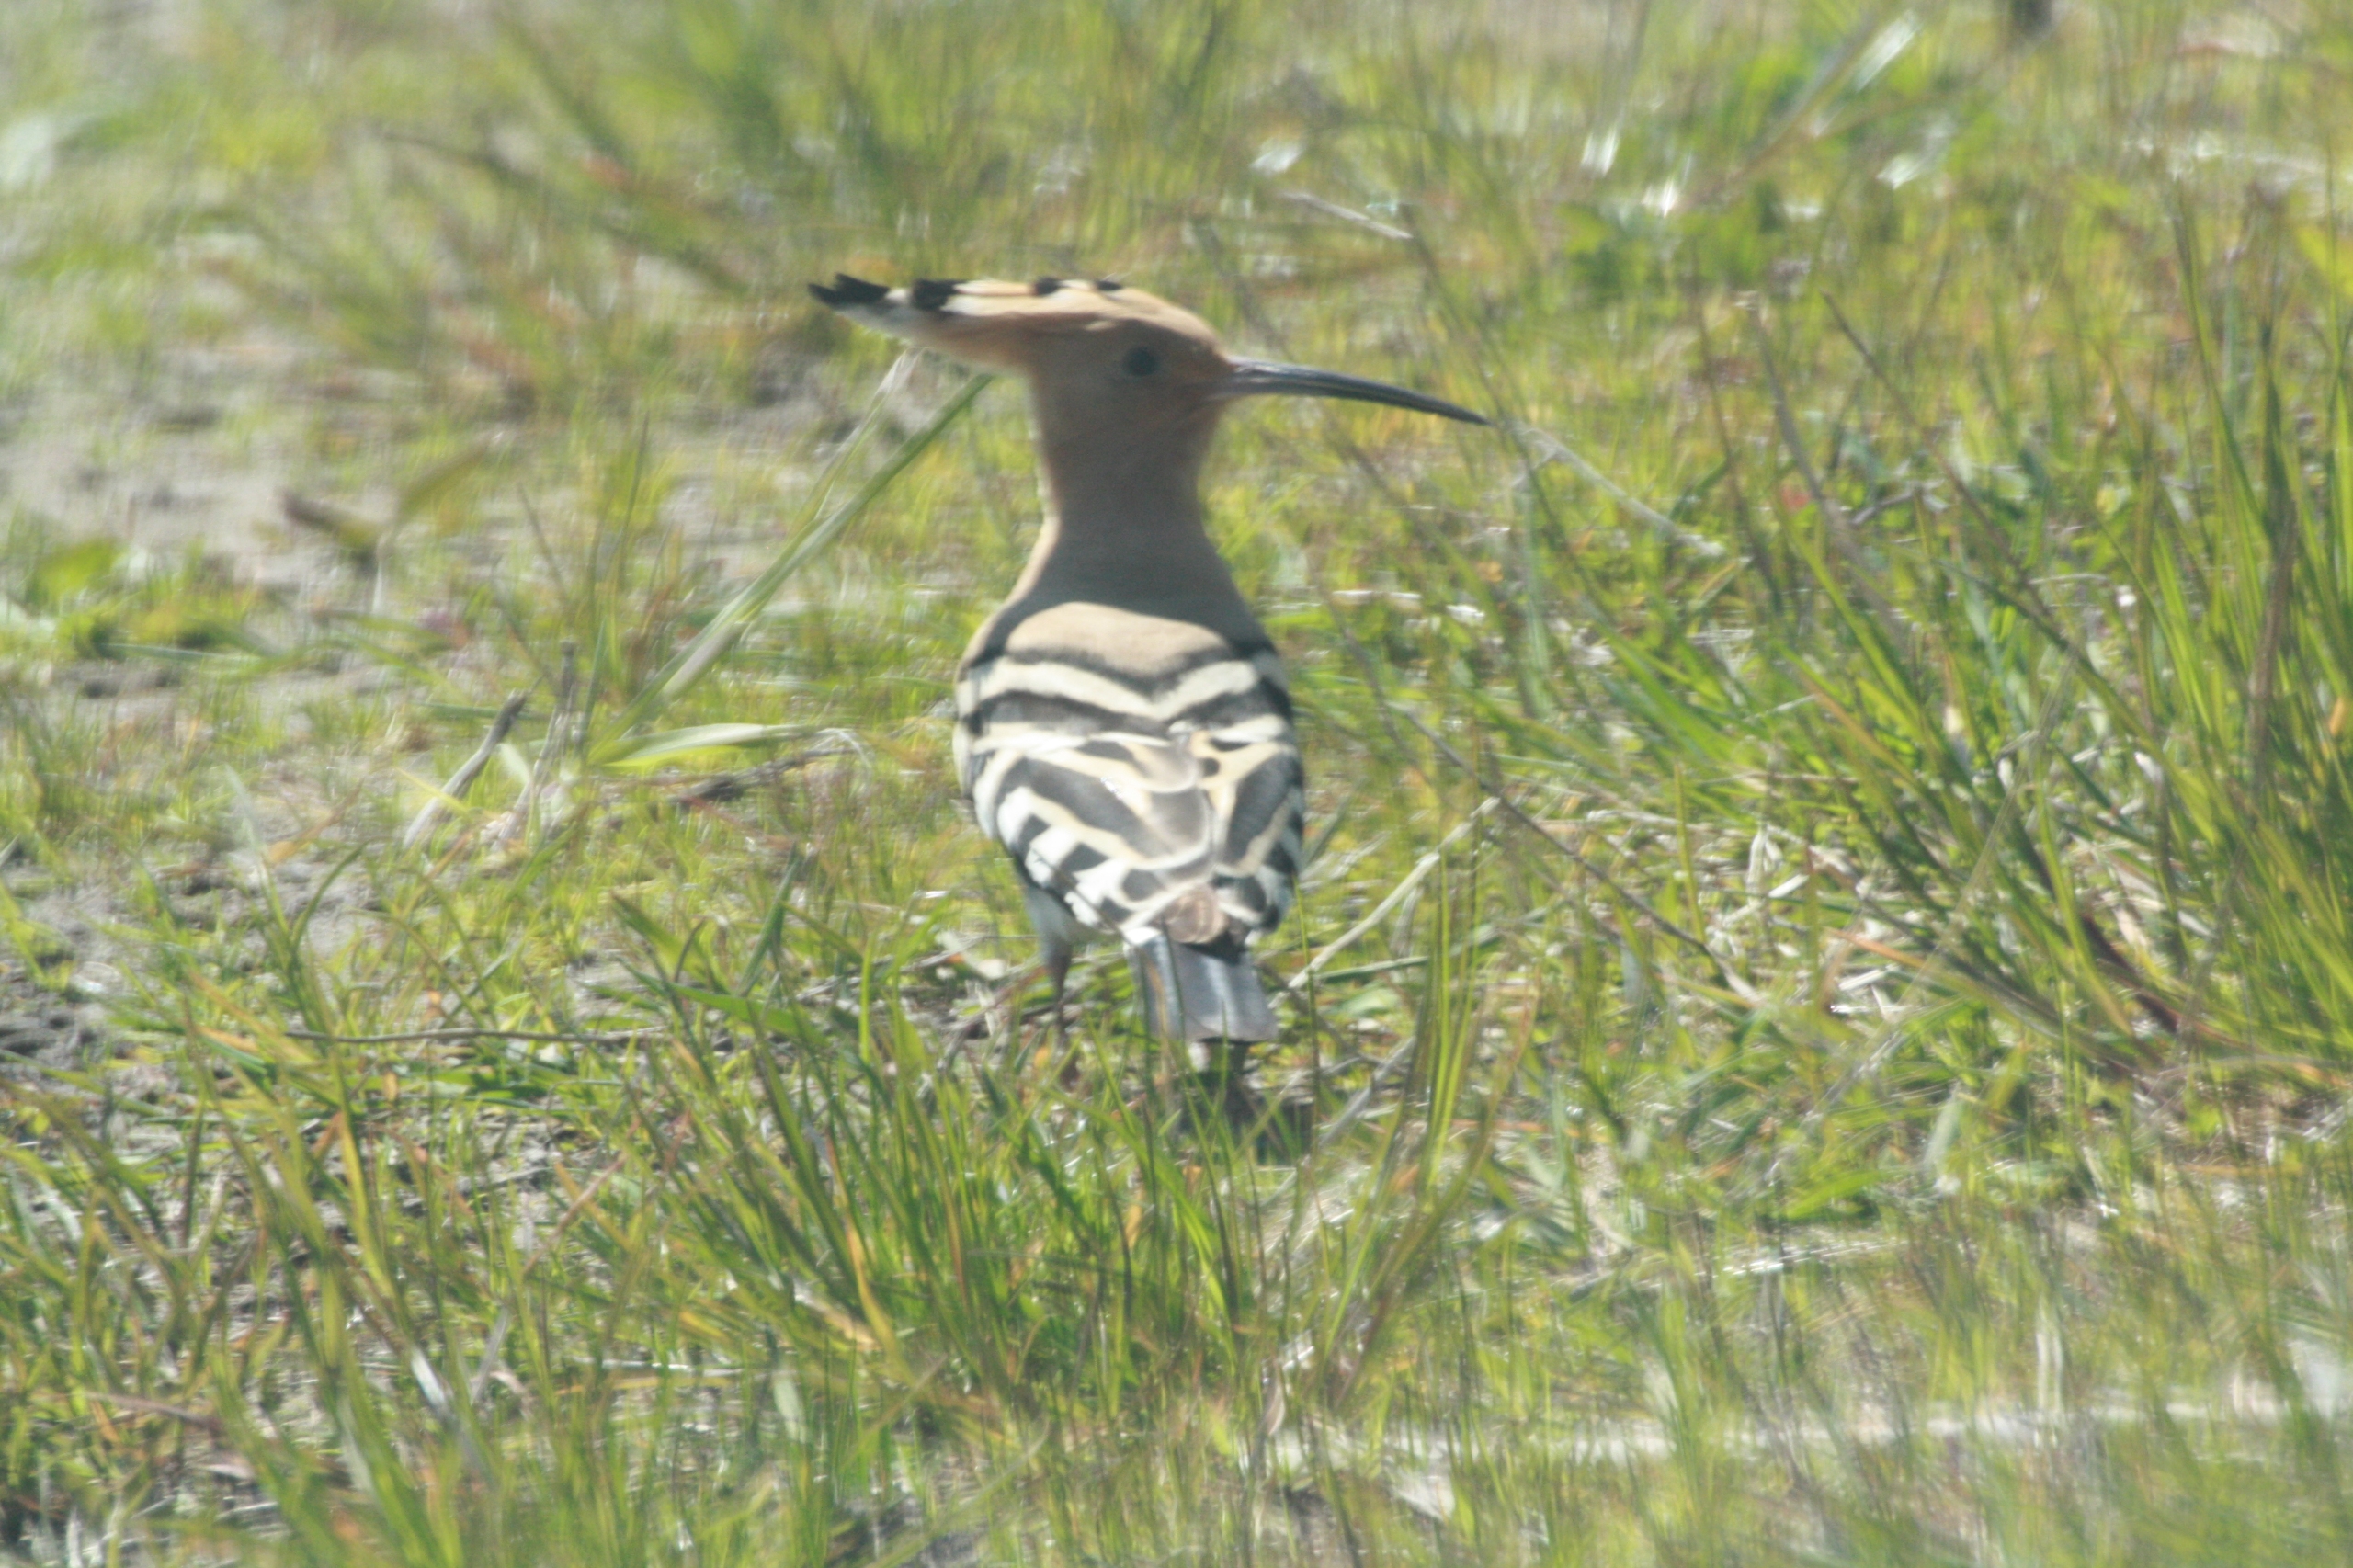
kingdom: Animalia
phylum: Chordata
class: Aves
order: Bucerotiformes
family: Upupidae
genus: Upupa
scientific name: Upupa epops
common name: Hærfugl
